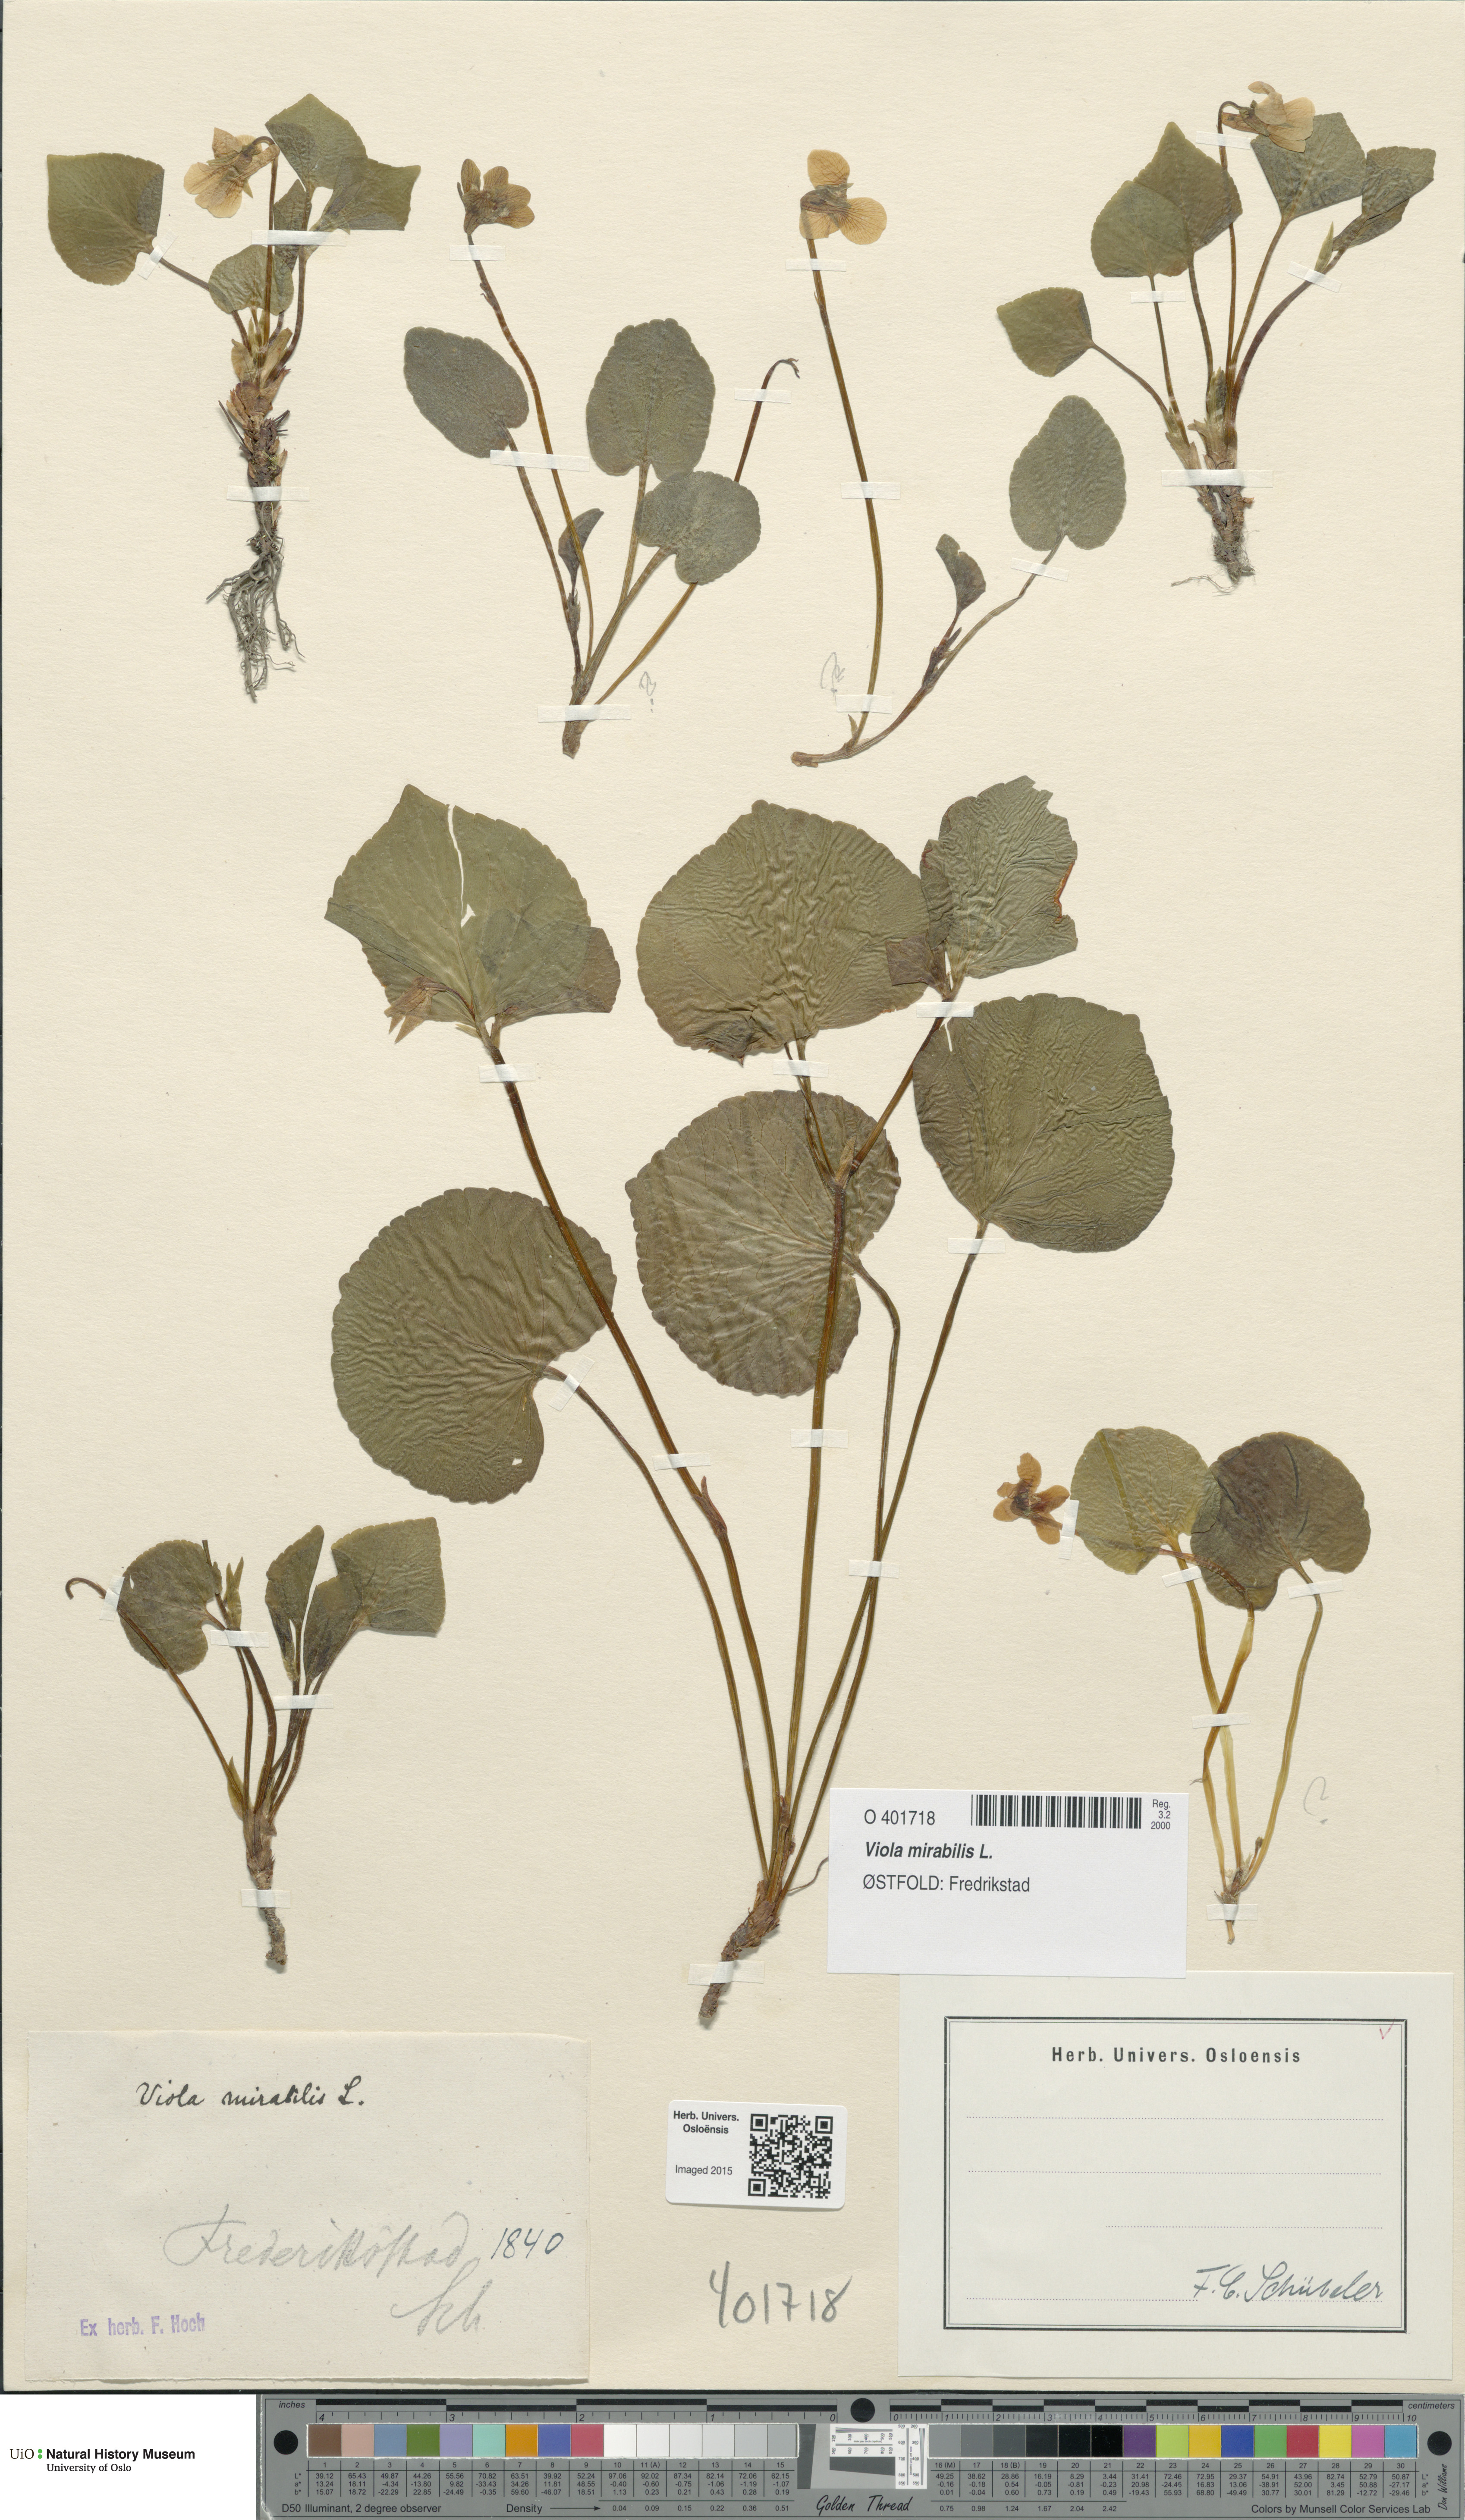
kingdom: Plantae
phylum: Tracheophyta
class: Magnoliopsida
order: Malpighiales
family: Violaceae
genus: Viola
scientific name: Viola mirabilis
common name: Wonder violet
